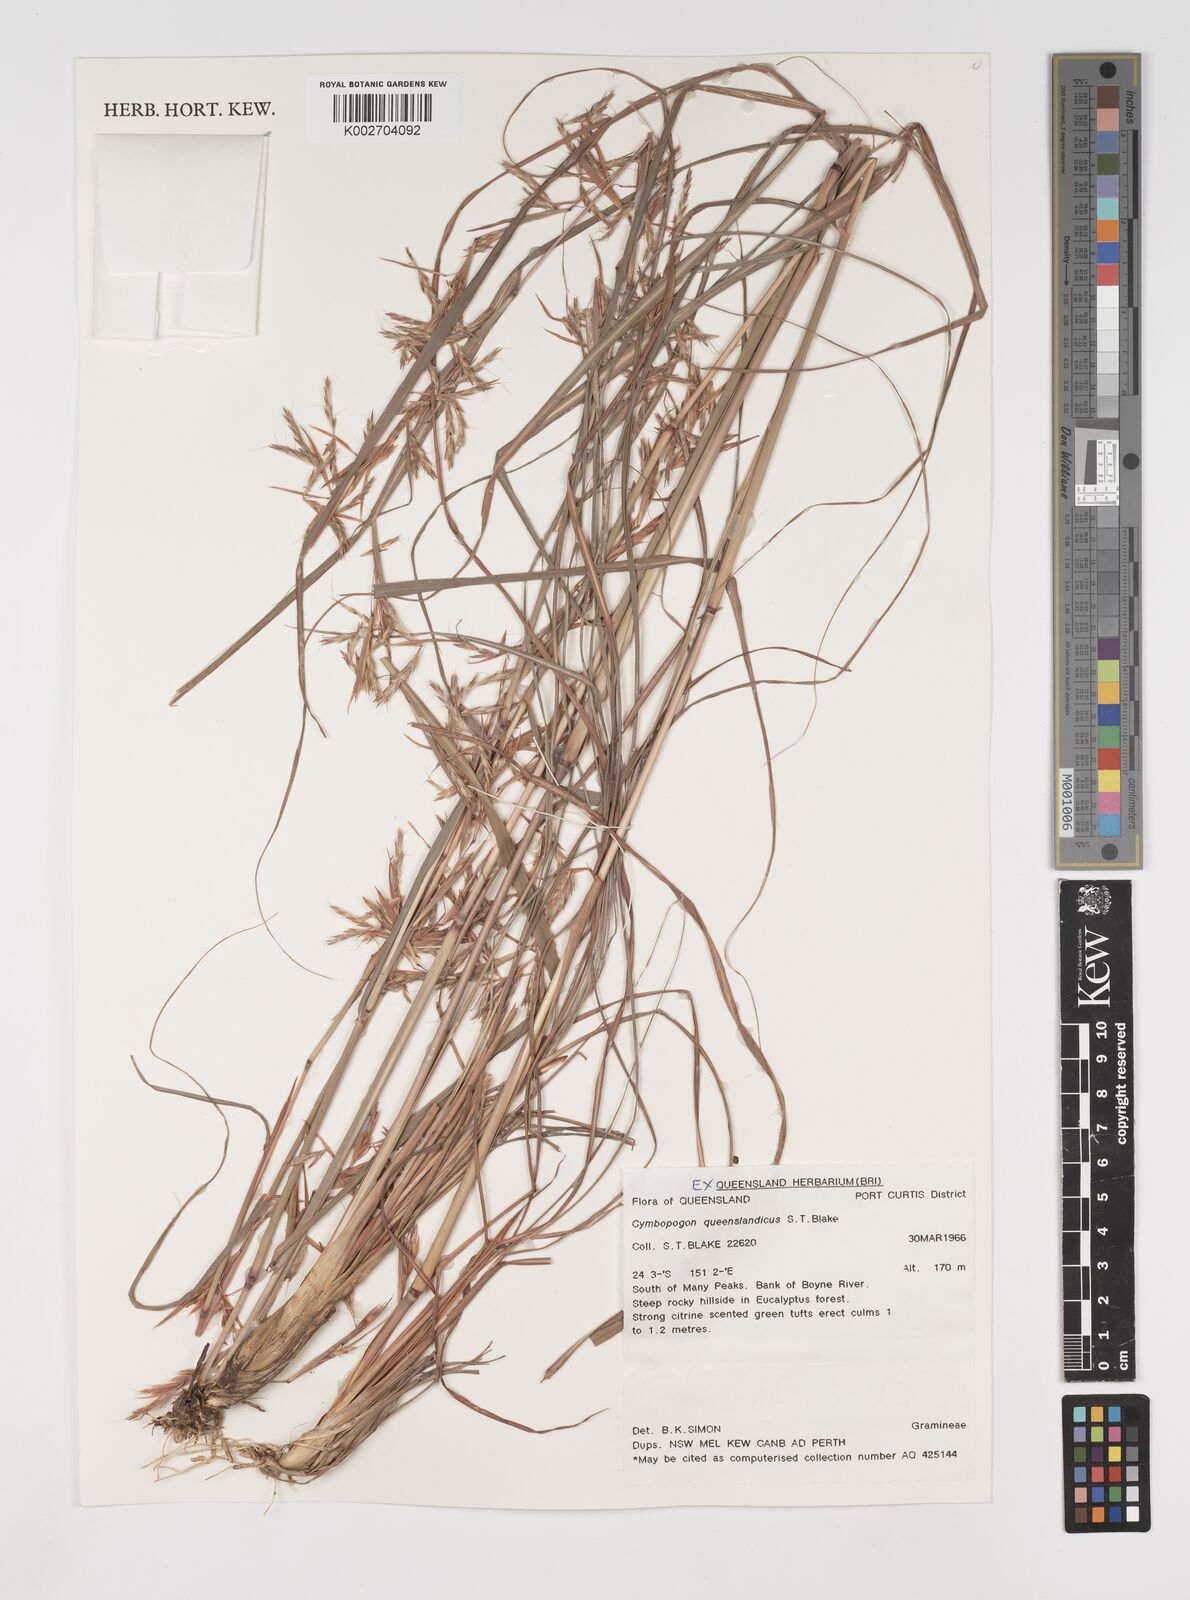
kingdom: Plantae
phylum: Tracheophyta
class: Liliopsida
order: Poales
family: Poaceae
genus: Cymbopogon
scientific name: Cymbopogon queenslandicus
